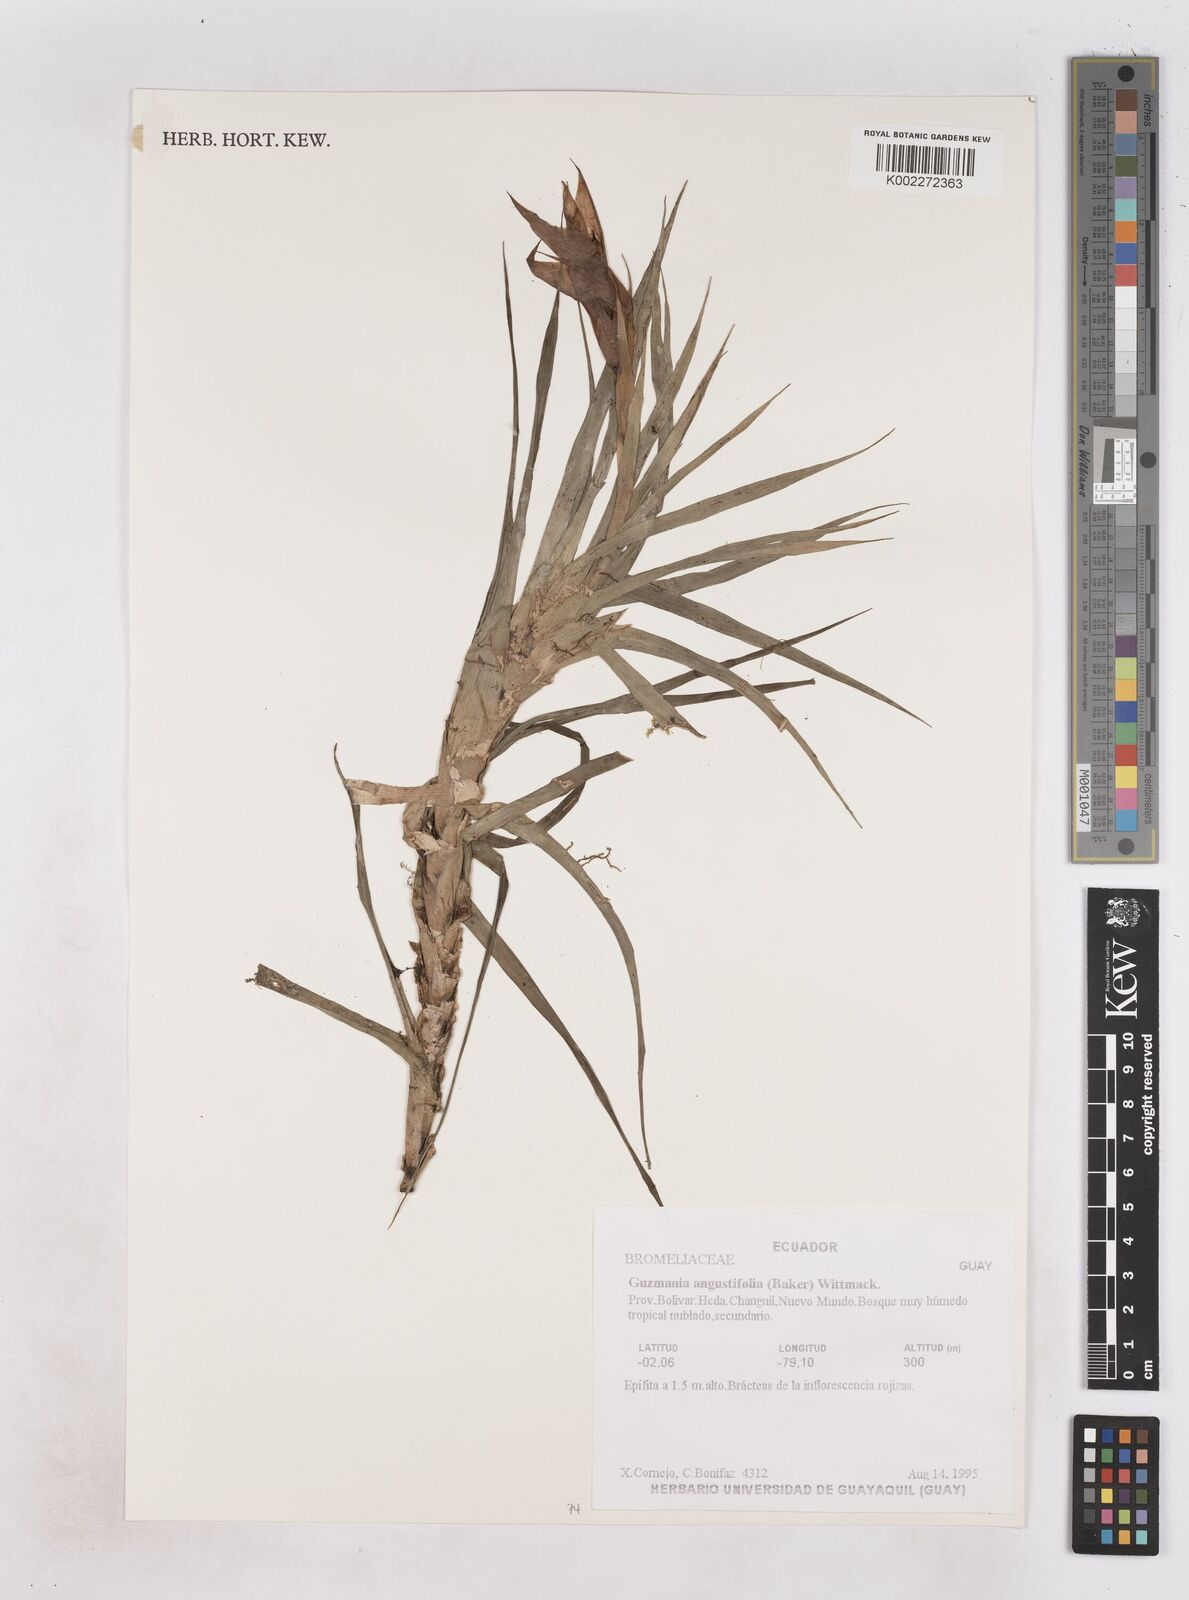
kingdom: Plantae
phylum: Tracheophyta
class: Liliopsida
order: Poales
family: Bromeliaceae
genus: Guzmania
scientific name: Guzmania angustifolia
